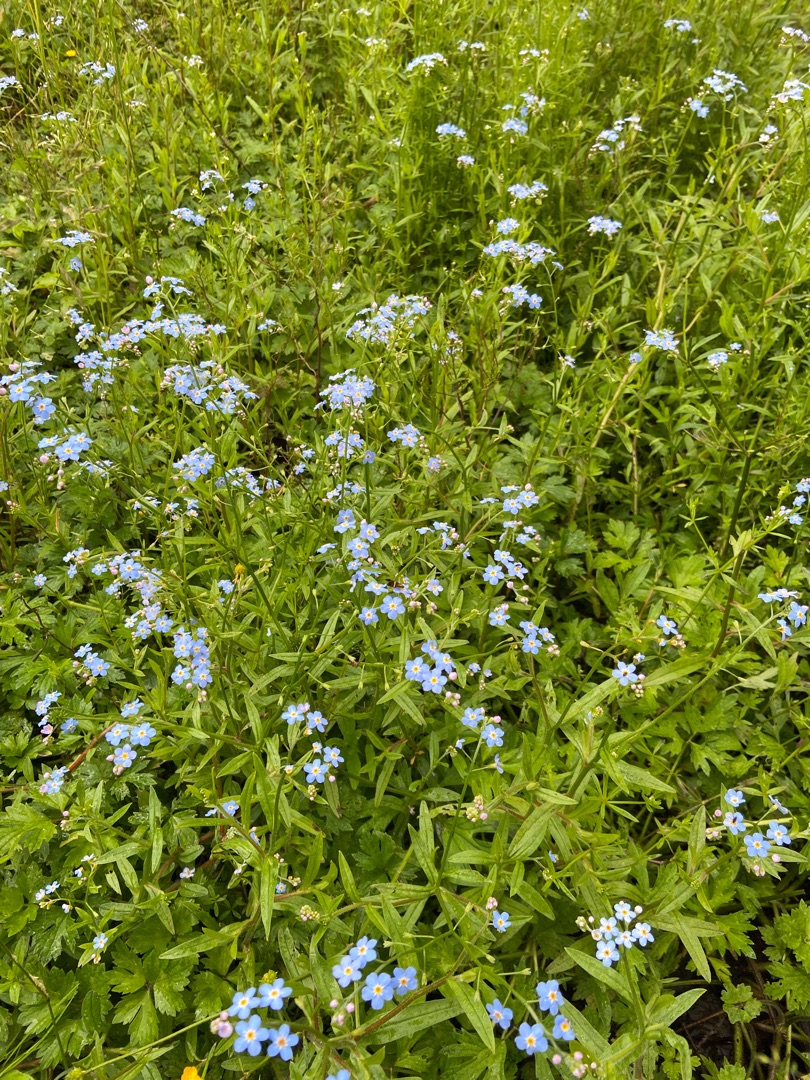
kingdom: Plantae
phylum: Tracheophyta
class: Magnoliopsida
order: Boraginales
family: Boraginaceae
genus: Myosotis
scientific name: Myosotis scorpioides
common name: Eng-forglemmigej
